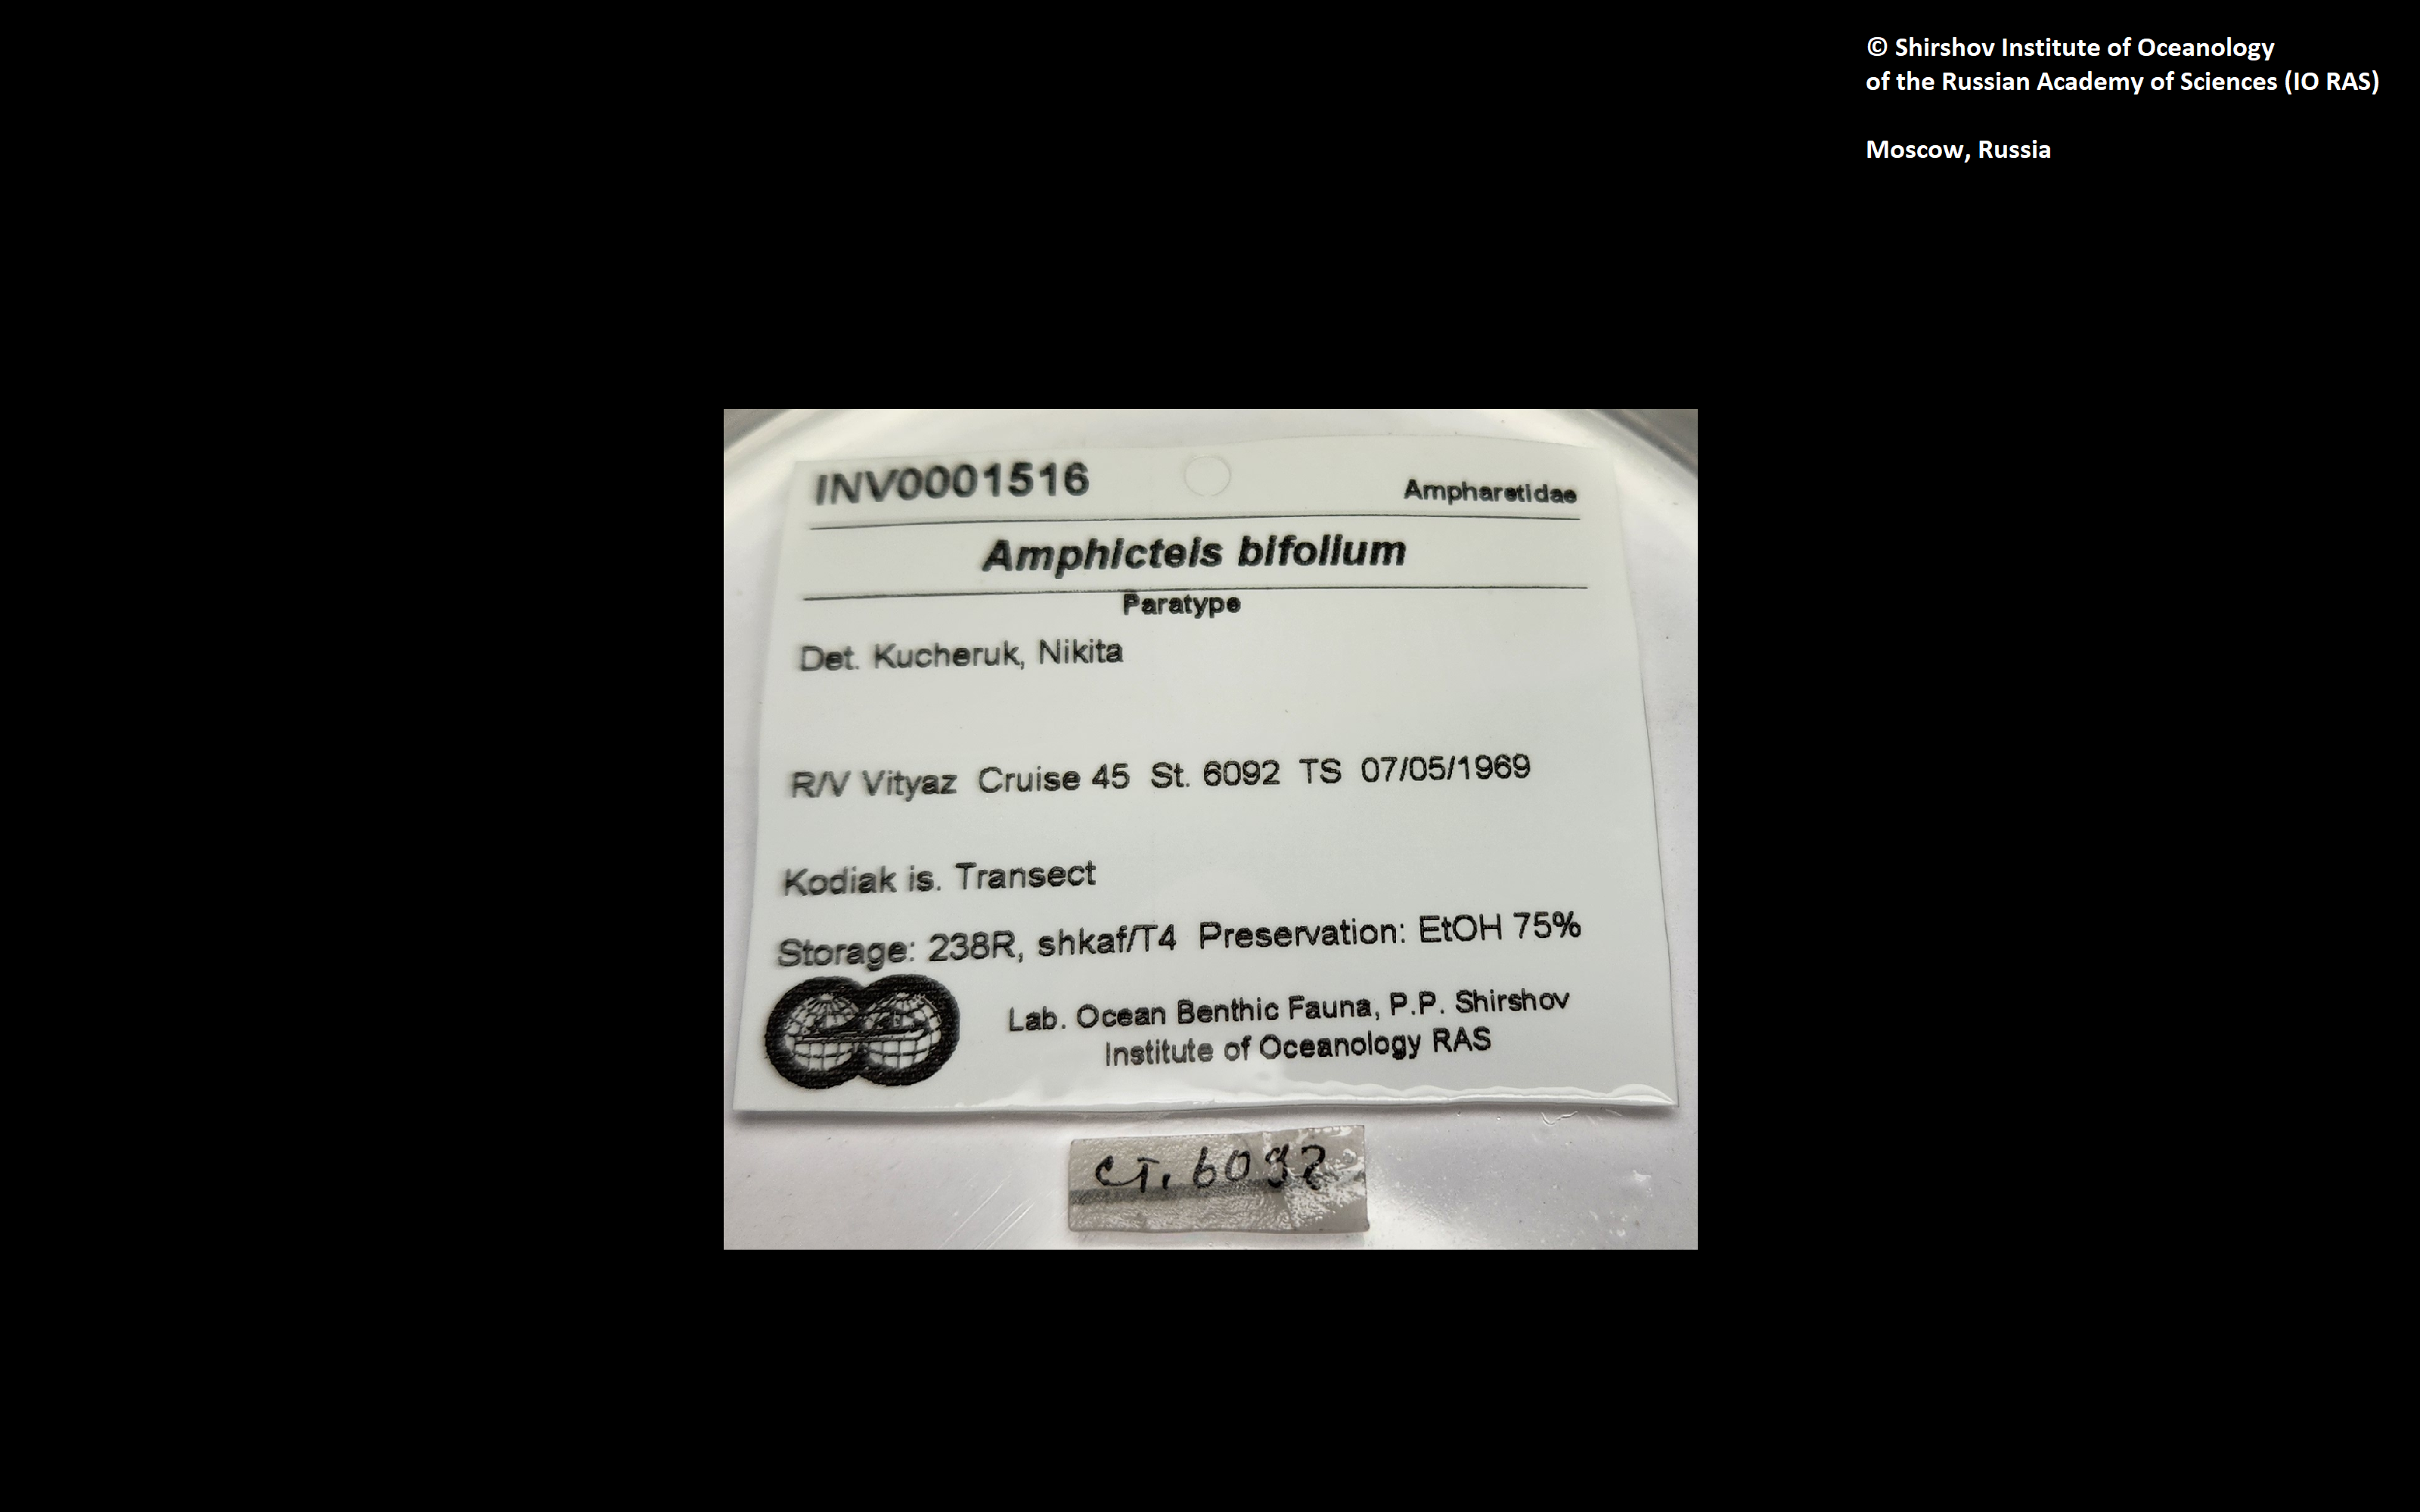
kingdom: Animalia
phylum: Annelida
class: Polychaeta
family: Ampharetidae
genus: Amphicteis
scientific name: Amphicteis bifolium
